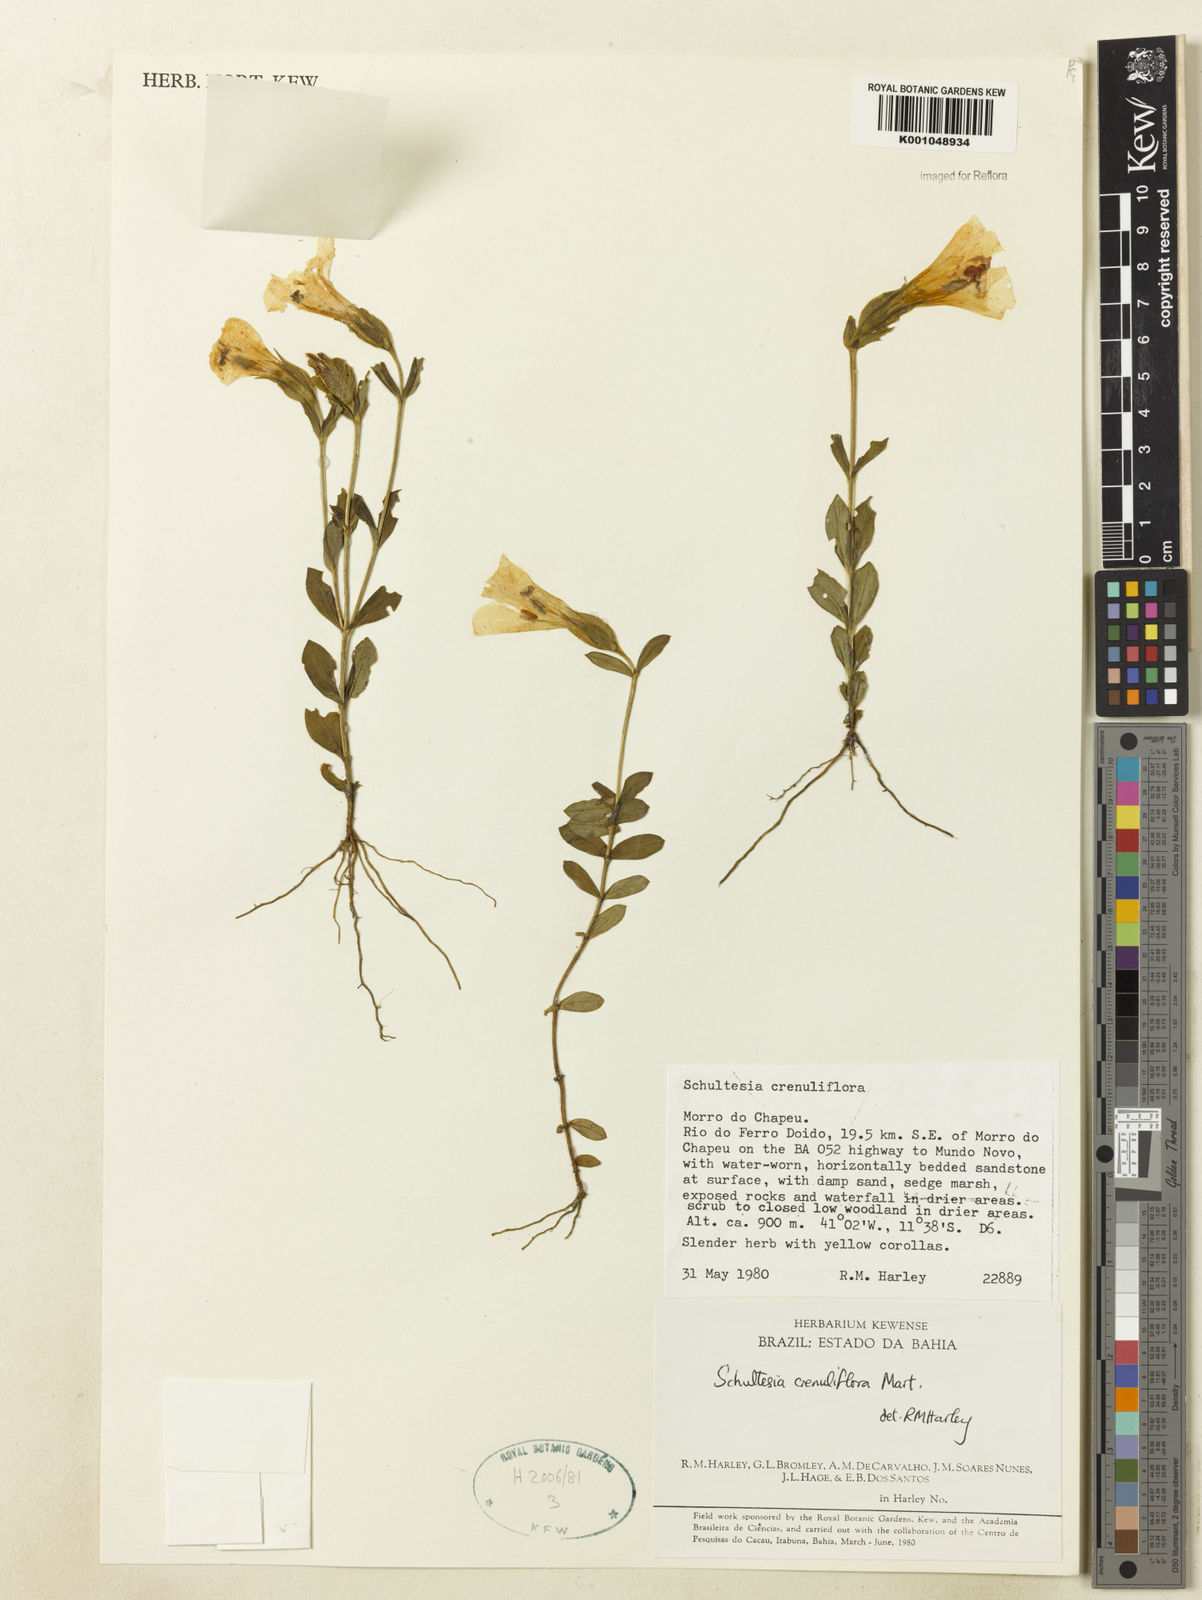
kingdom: Plantae
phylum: Tracheophyta
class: Magnoliopsida
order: Gentianales
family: Gentianaceae
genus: Schultesia
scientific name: Schultesia crenuliflora
